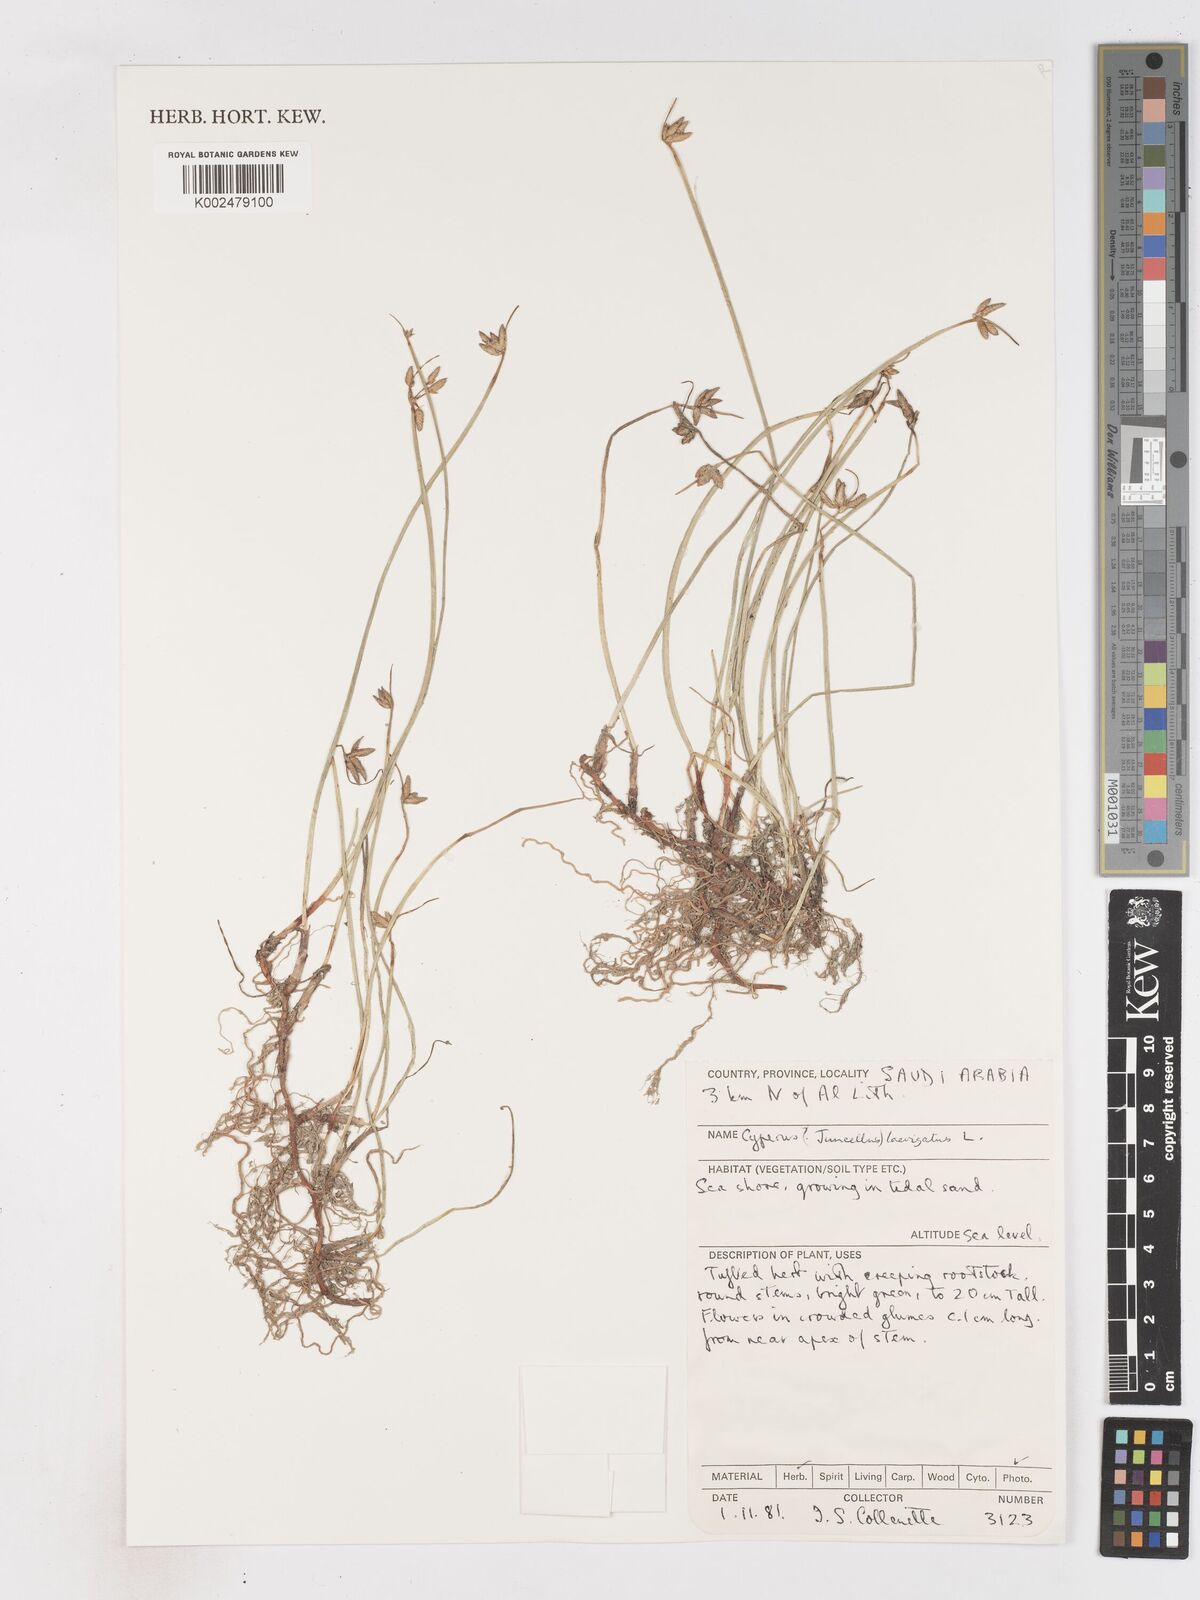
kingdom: Plantae
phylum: Tracheophyta
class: Liliopsida
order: Poales
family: Cyperaceae
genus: Cyperus
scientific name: Cyperus laevigatus
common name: Smooth flat sedge
